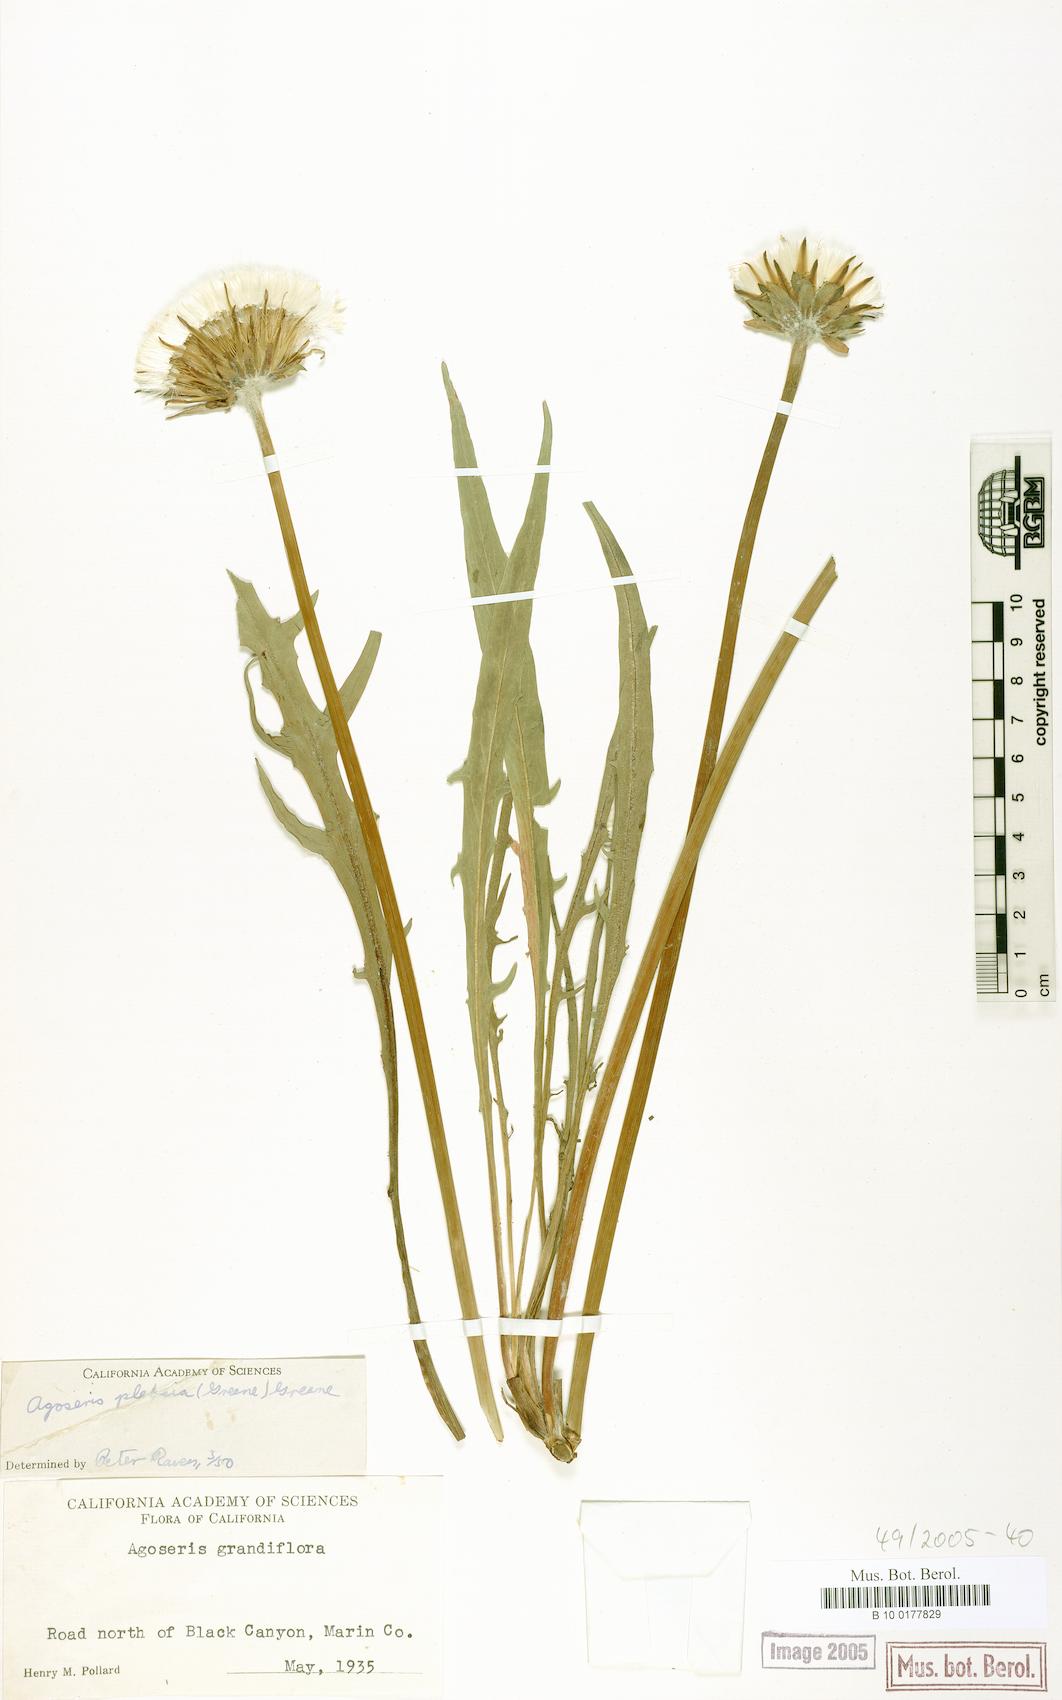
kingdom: Plantae
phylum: Tracheophyta
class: Magnoliopsida
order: Asterales
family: Asteraceae
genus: Agoseris
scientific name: Agoseris grandiflora
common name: Grassland agoseris
